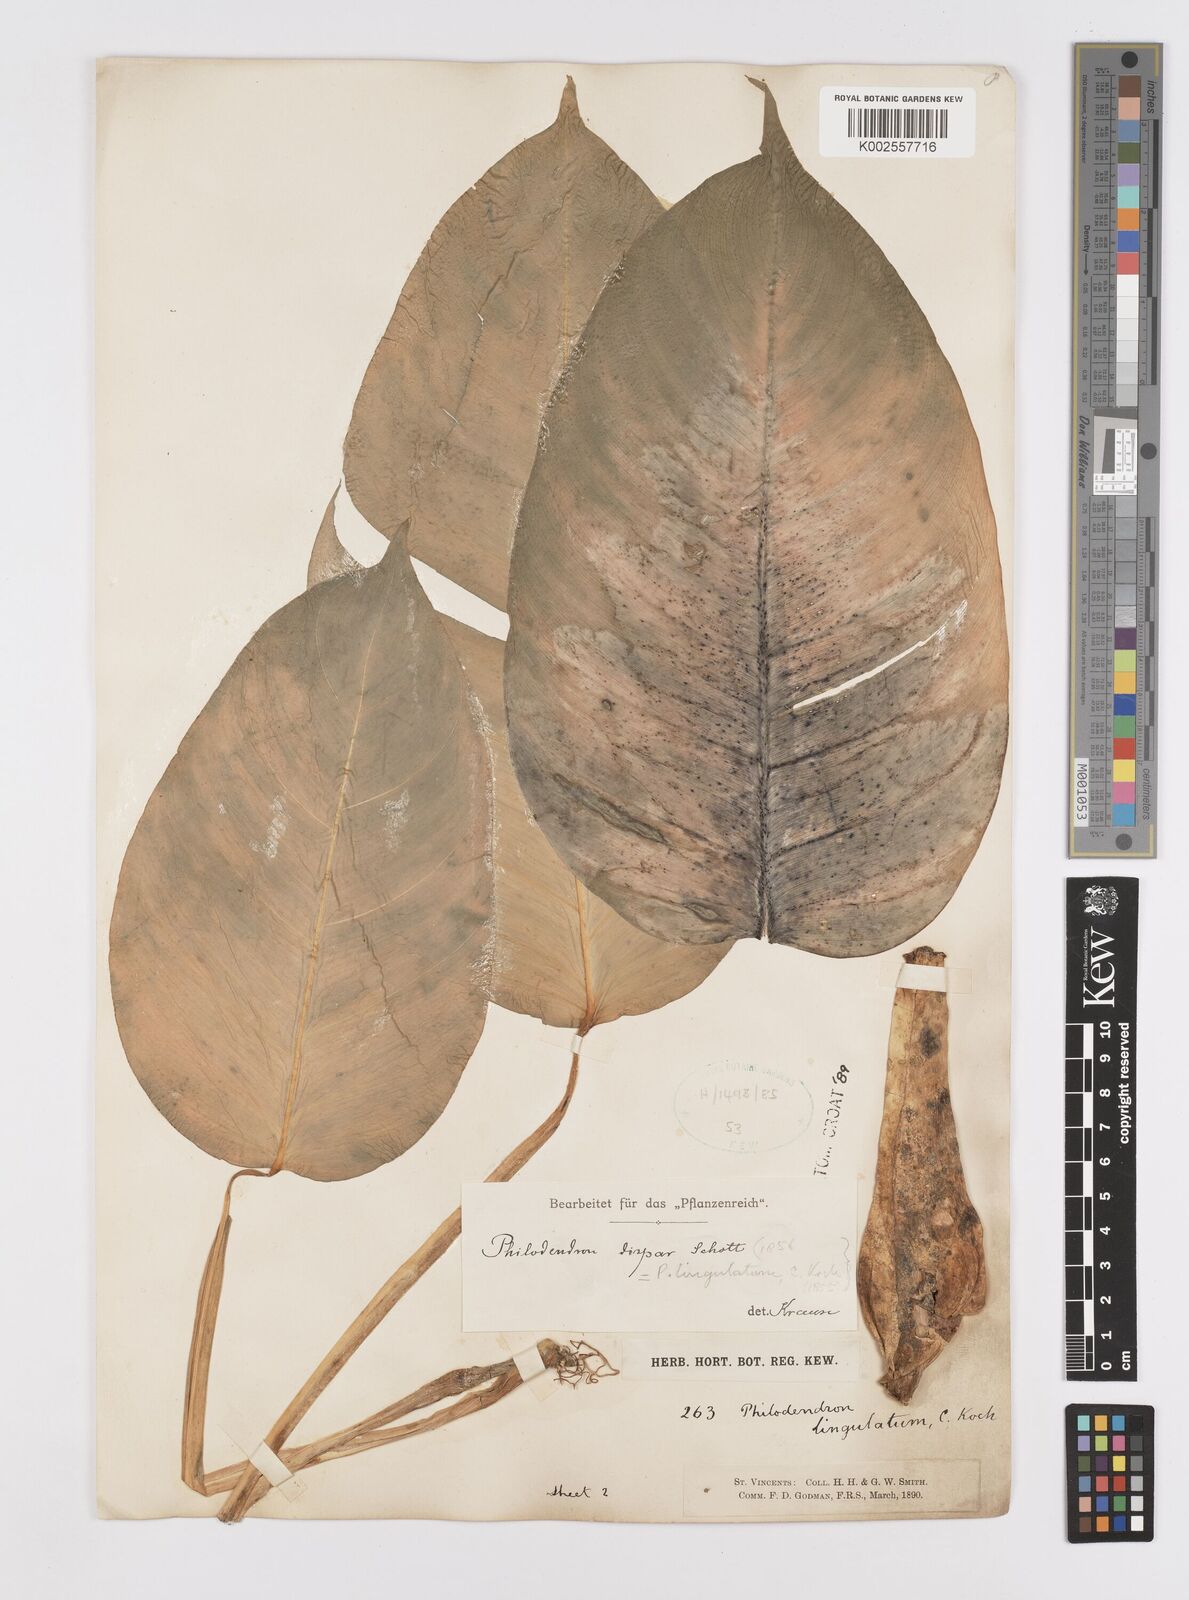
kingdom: Plantae
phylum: Tracheophyta
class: Liliopsida
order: Alismatales
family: Araceae
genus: Philodendron
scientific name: Philodendron lingulatum
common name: Treelover
